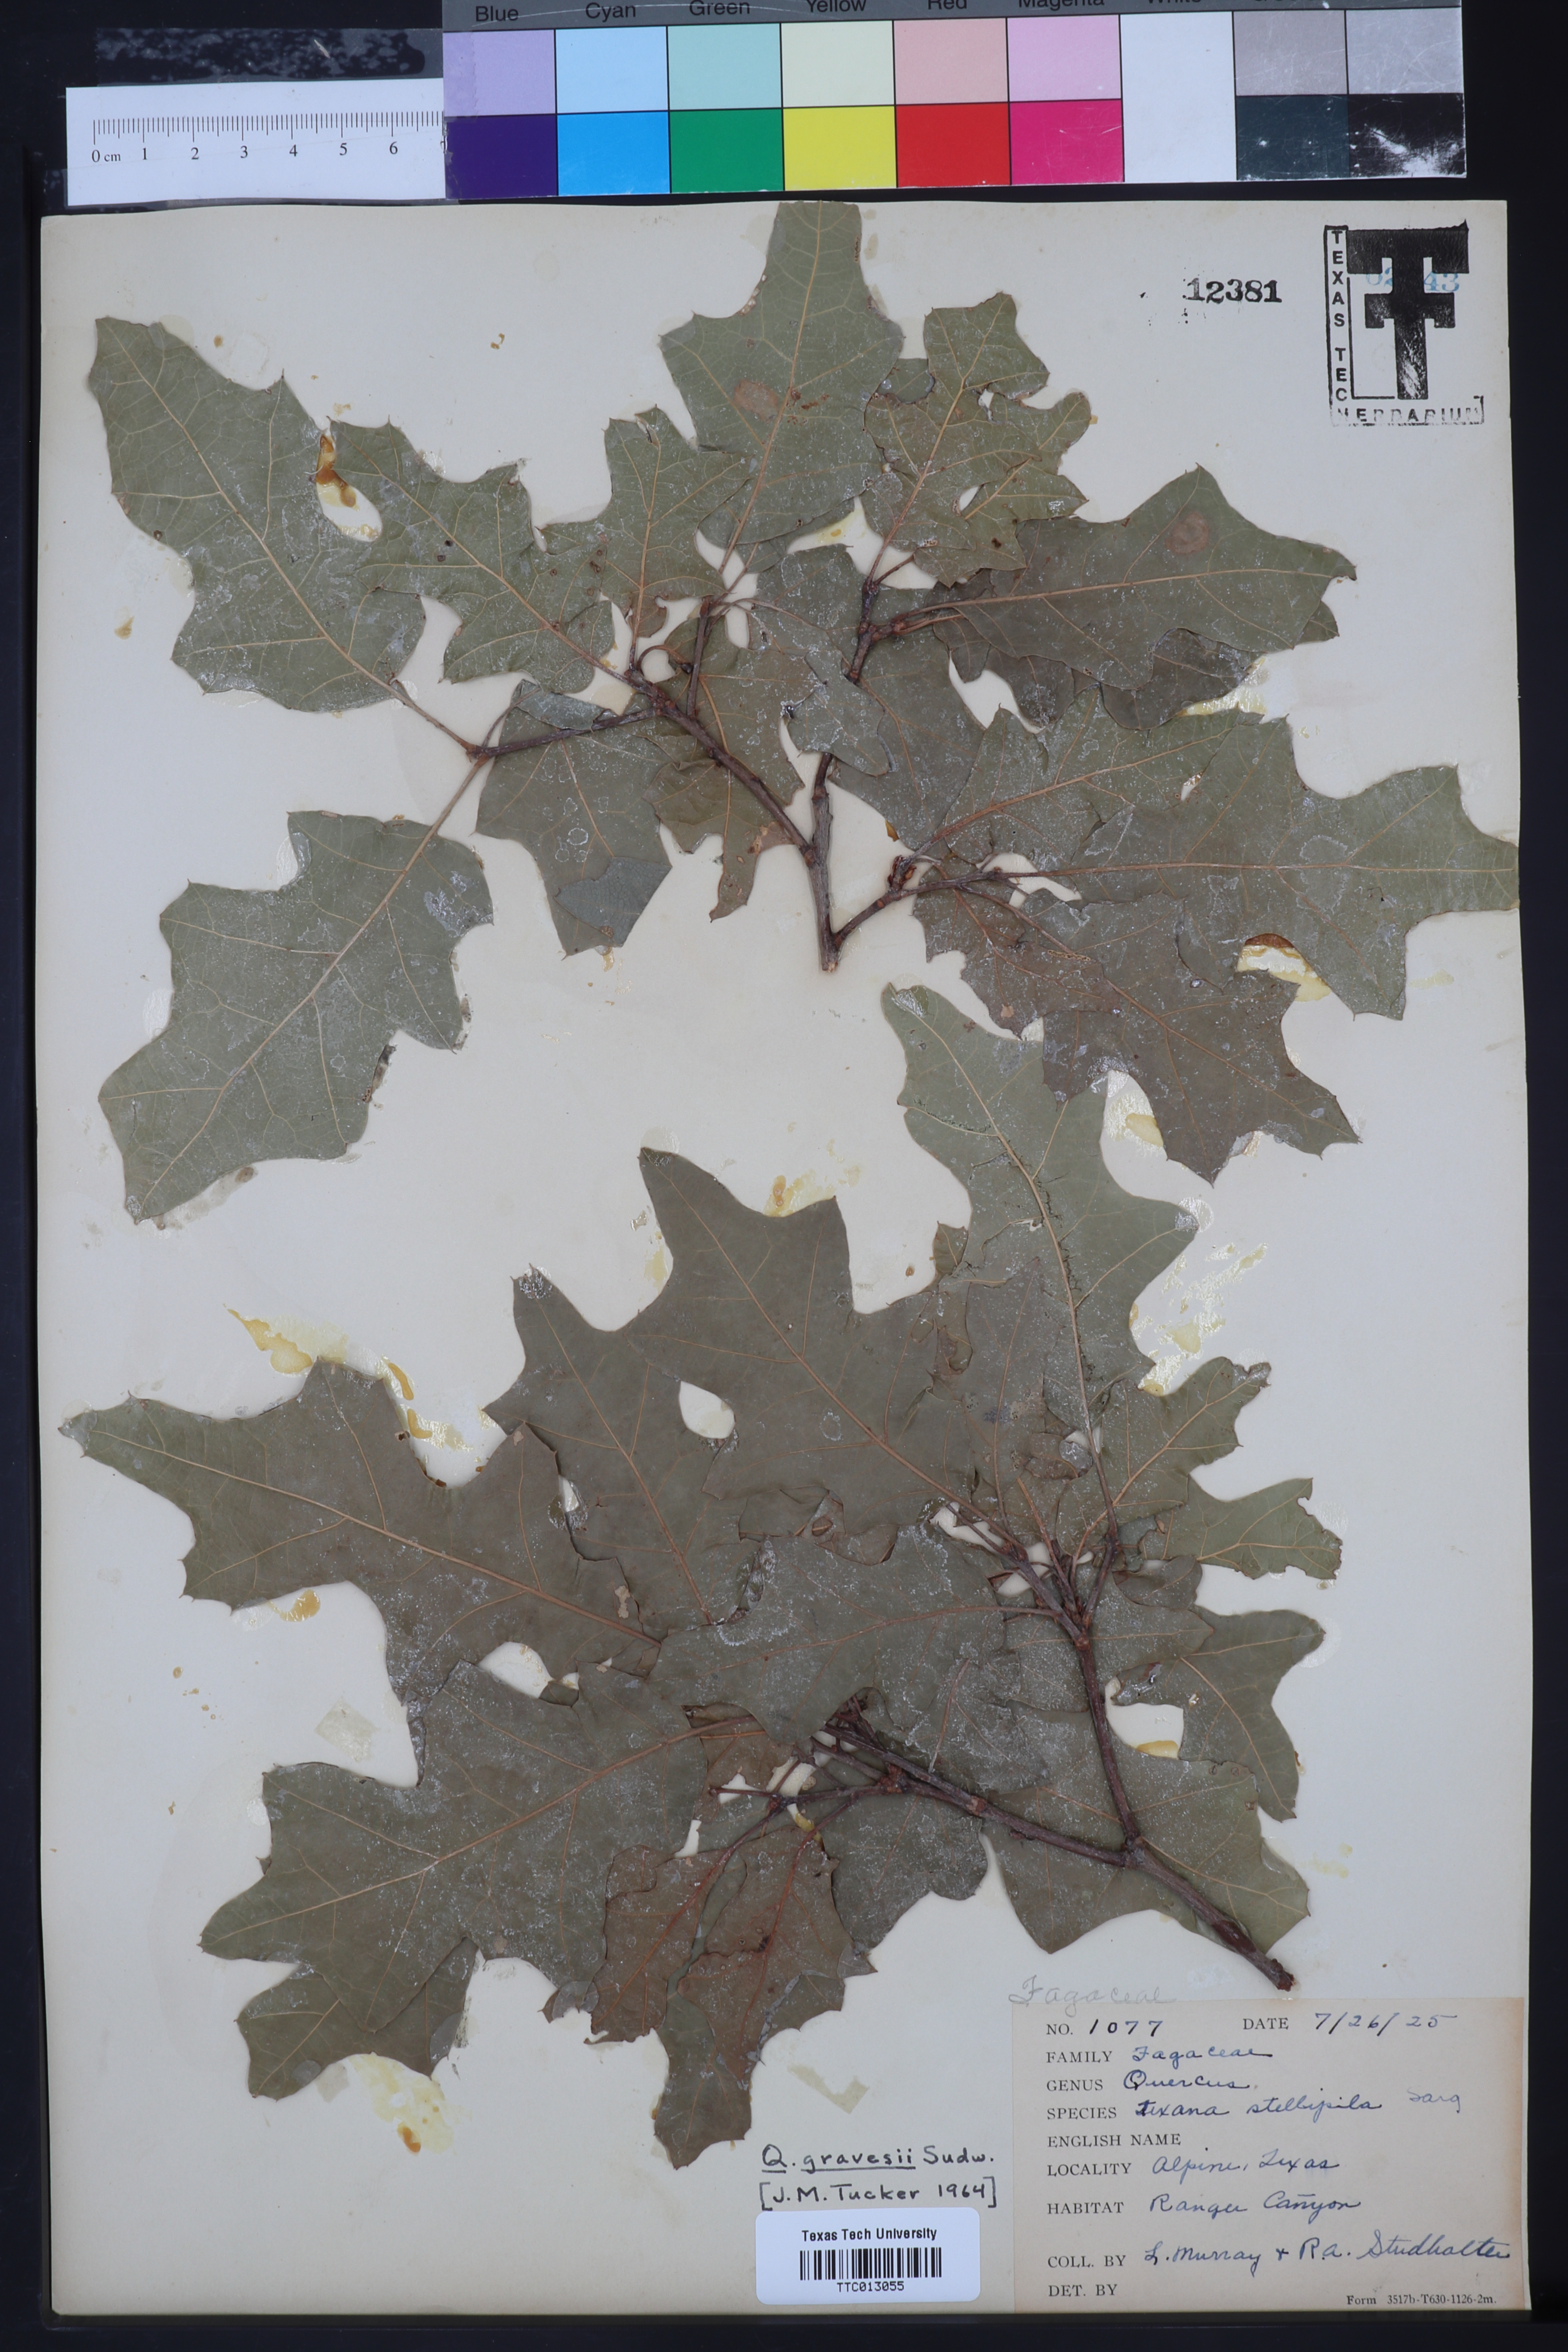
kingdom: Plantae
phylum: Tracheophyta
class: Magnoliopsida
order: Fagales
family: Fagaceae
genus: Quercus
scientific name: Quercus gravesii
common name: Chisos red oak
